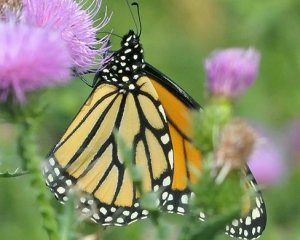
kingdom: Animalia
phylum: Arthropoda
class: Insecta
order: Lepidoptera
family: Nymphalidae
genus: Danaus
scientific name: Danaus plexippus
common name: Monarch
